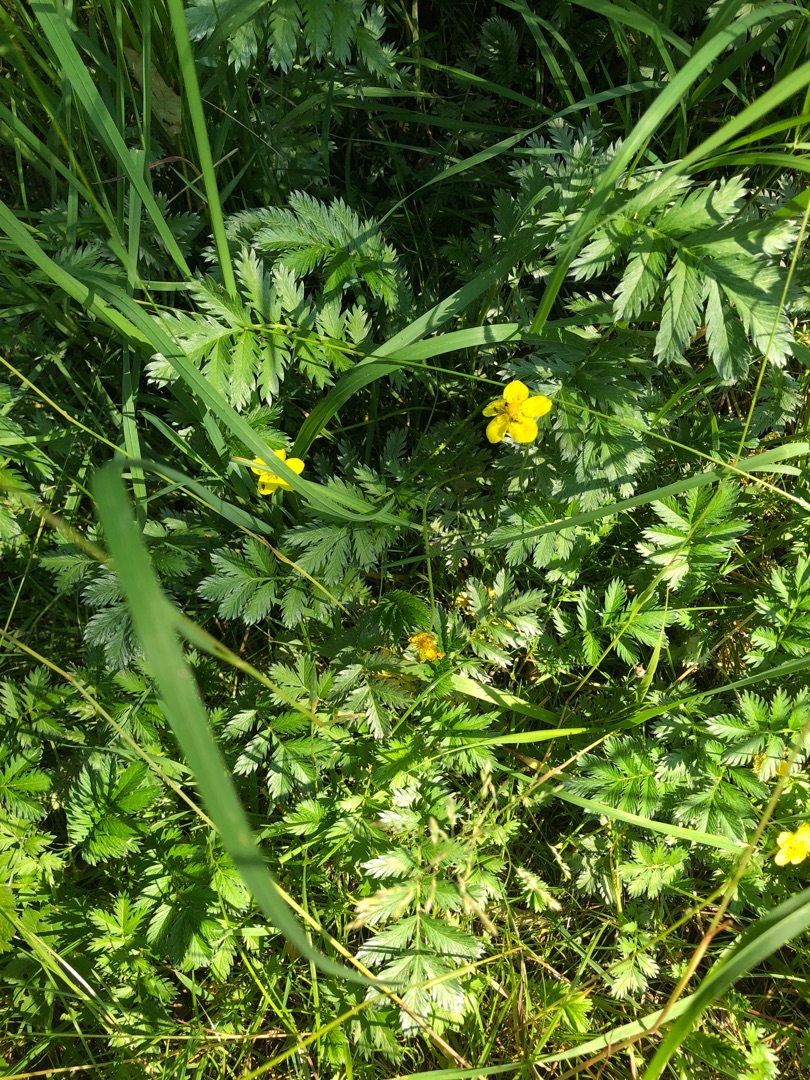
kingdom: Plantae
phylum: Tracheophyta
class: Magnoliopsida
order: Rosales
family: Rosaceae
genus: Argentina
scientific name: Argentina anserina
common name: Gåsepotentil
